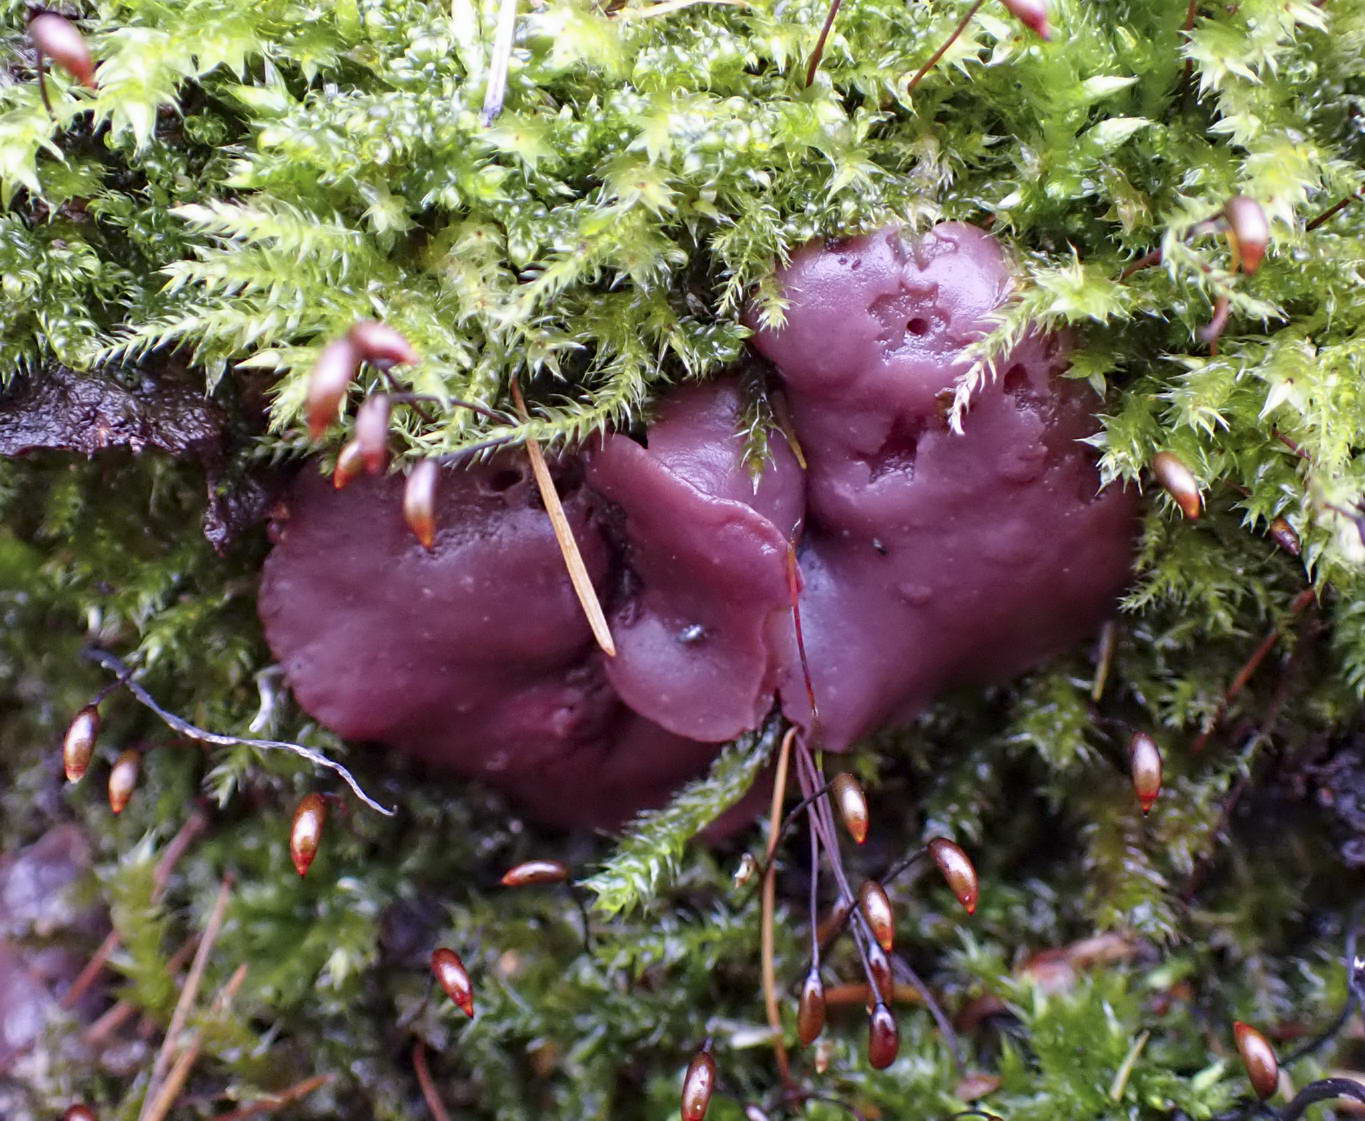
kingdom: Fungi
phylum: Ascomycota
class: Leotiomycetes
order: Helotiales
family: Gelatinodiscaceae
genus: Ascocoryne
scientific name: Ascocoryne cylichnium
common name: stor sejskive
